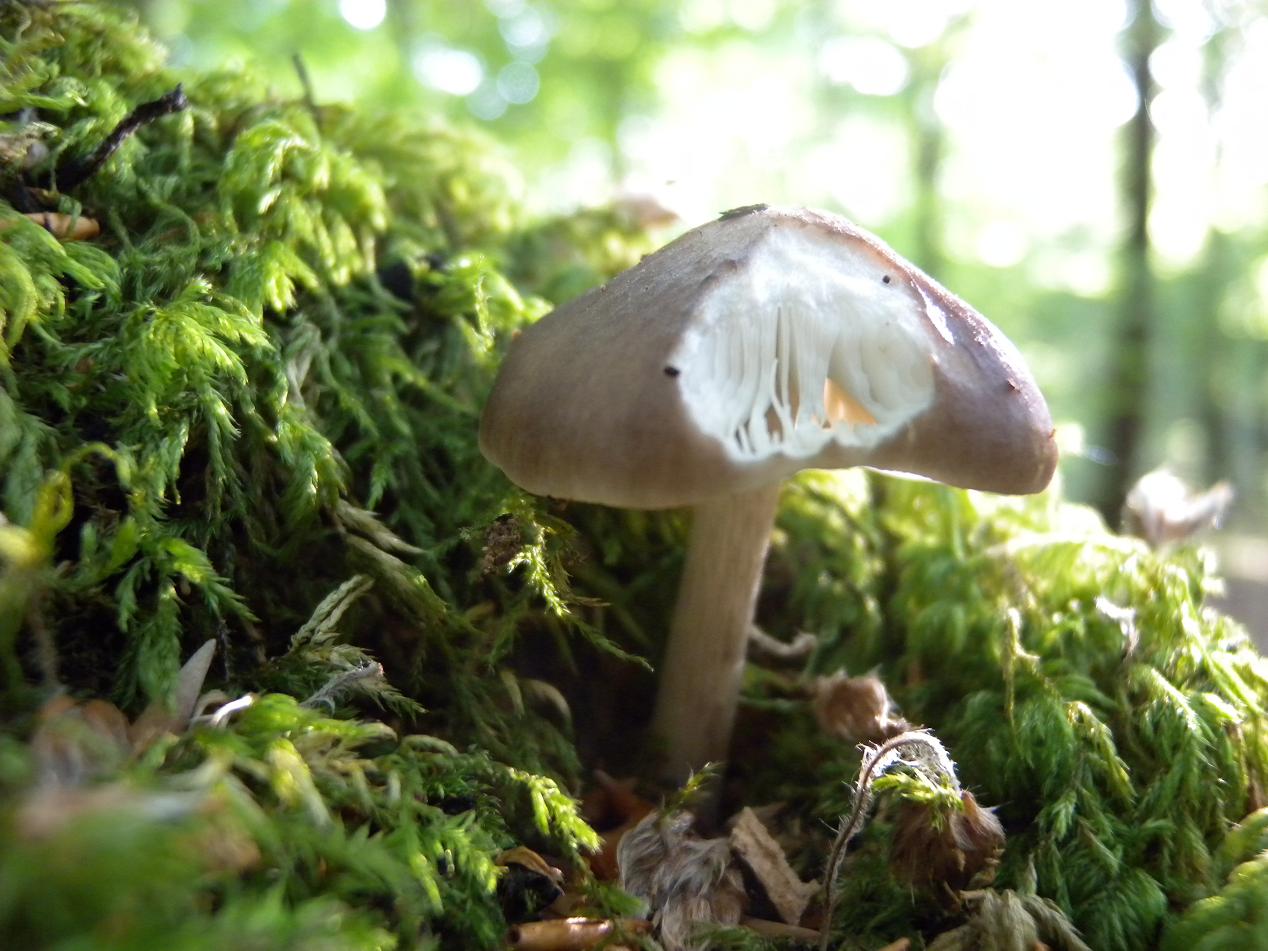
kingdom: Fungi
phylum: Basidiomycota
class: Agaricomycetes
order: Agaricales
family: Pluteaceae
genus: Pluteus
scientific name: Pluteus cervinus
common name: sodfarvet skærmhat
